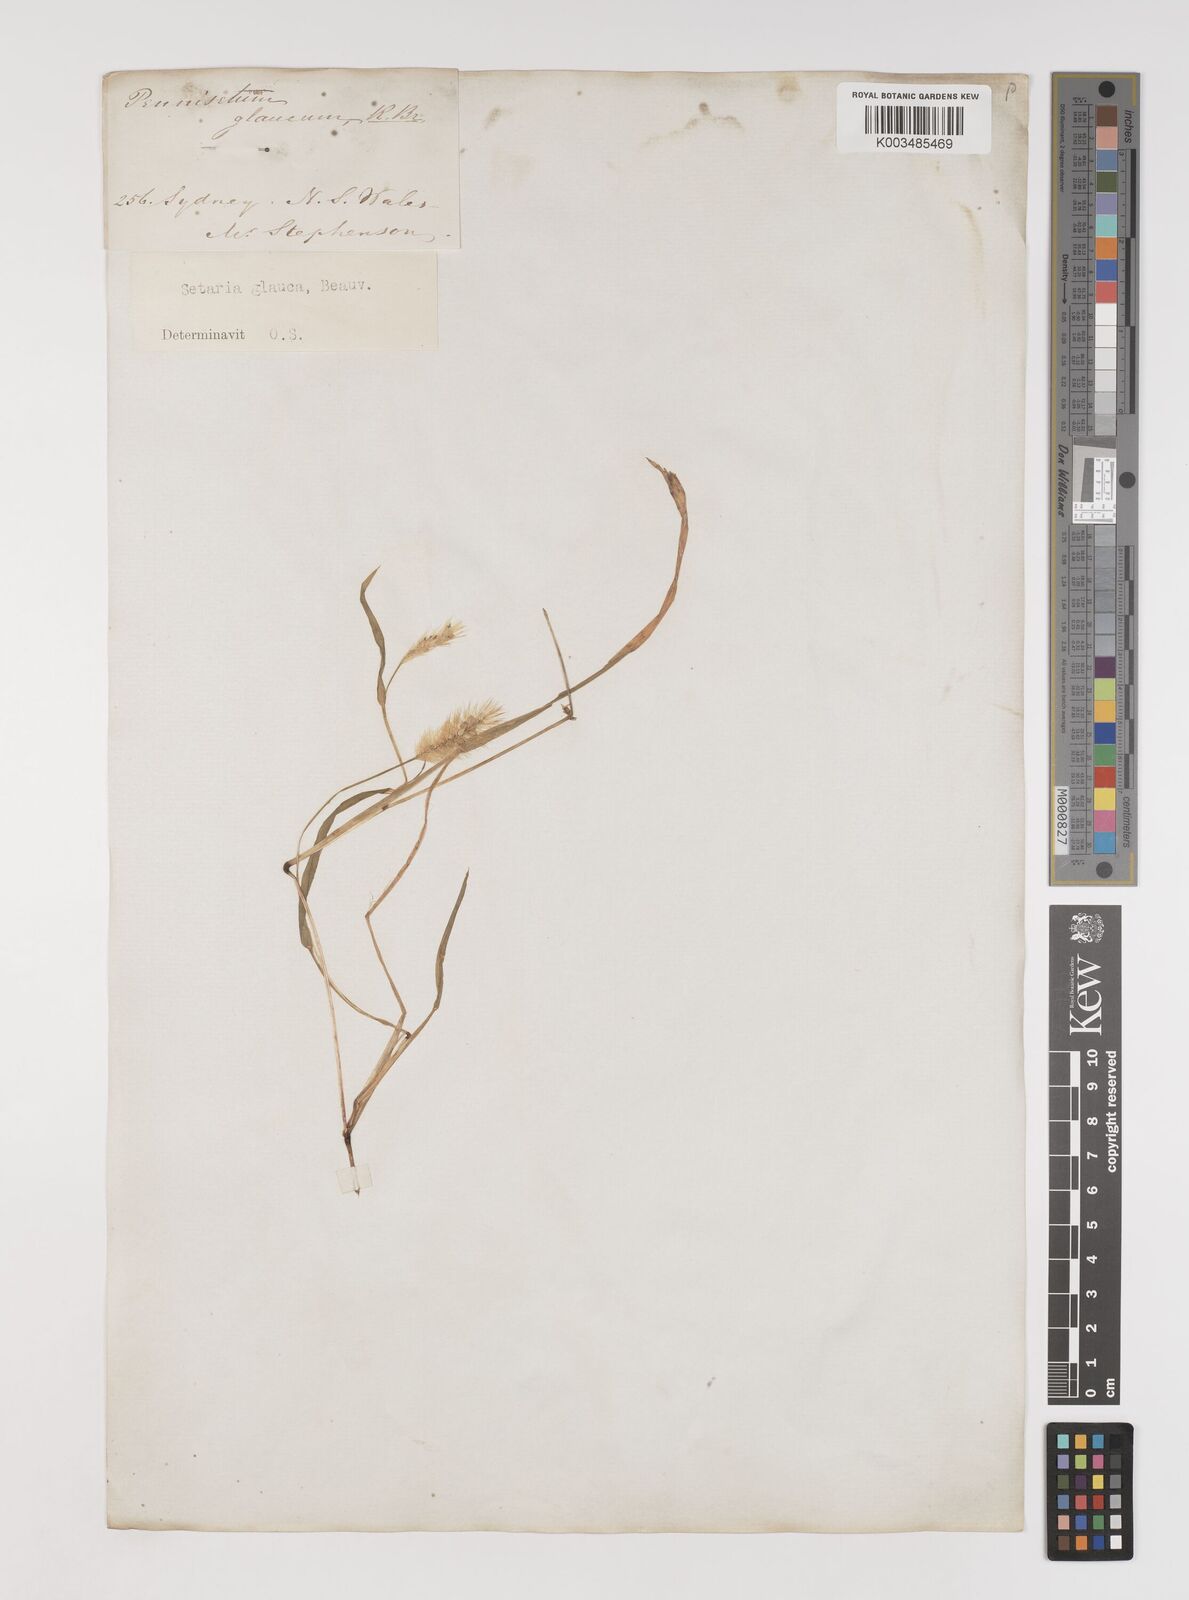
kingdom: Plantae
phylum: Tracheophyta
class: Liliopsida
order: Poales
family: Poaceae
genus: Setaria
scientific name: Setaria pumila
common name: Yellow bristle-grass
